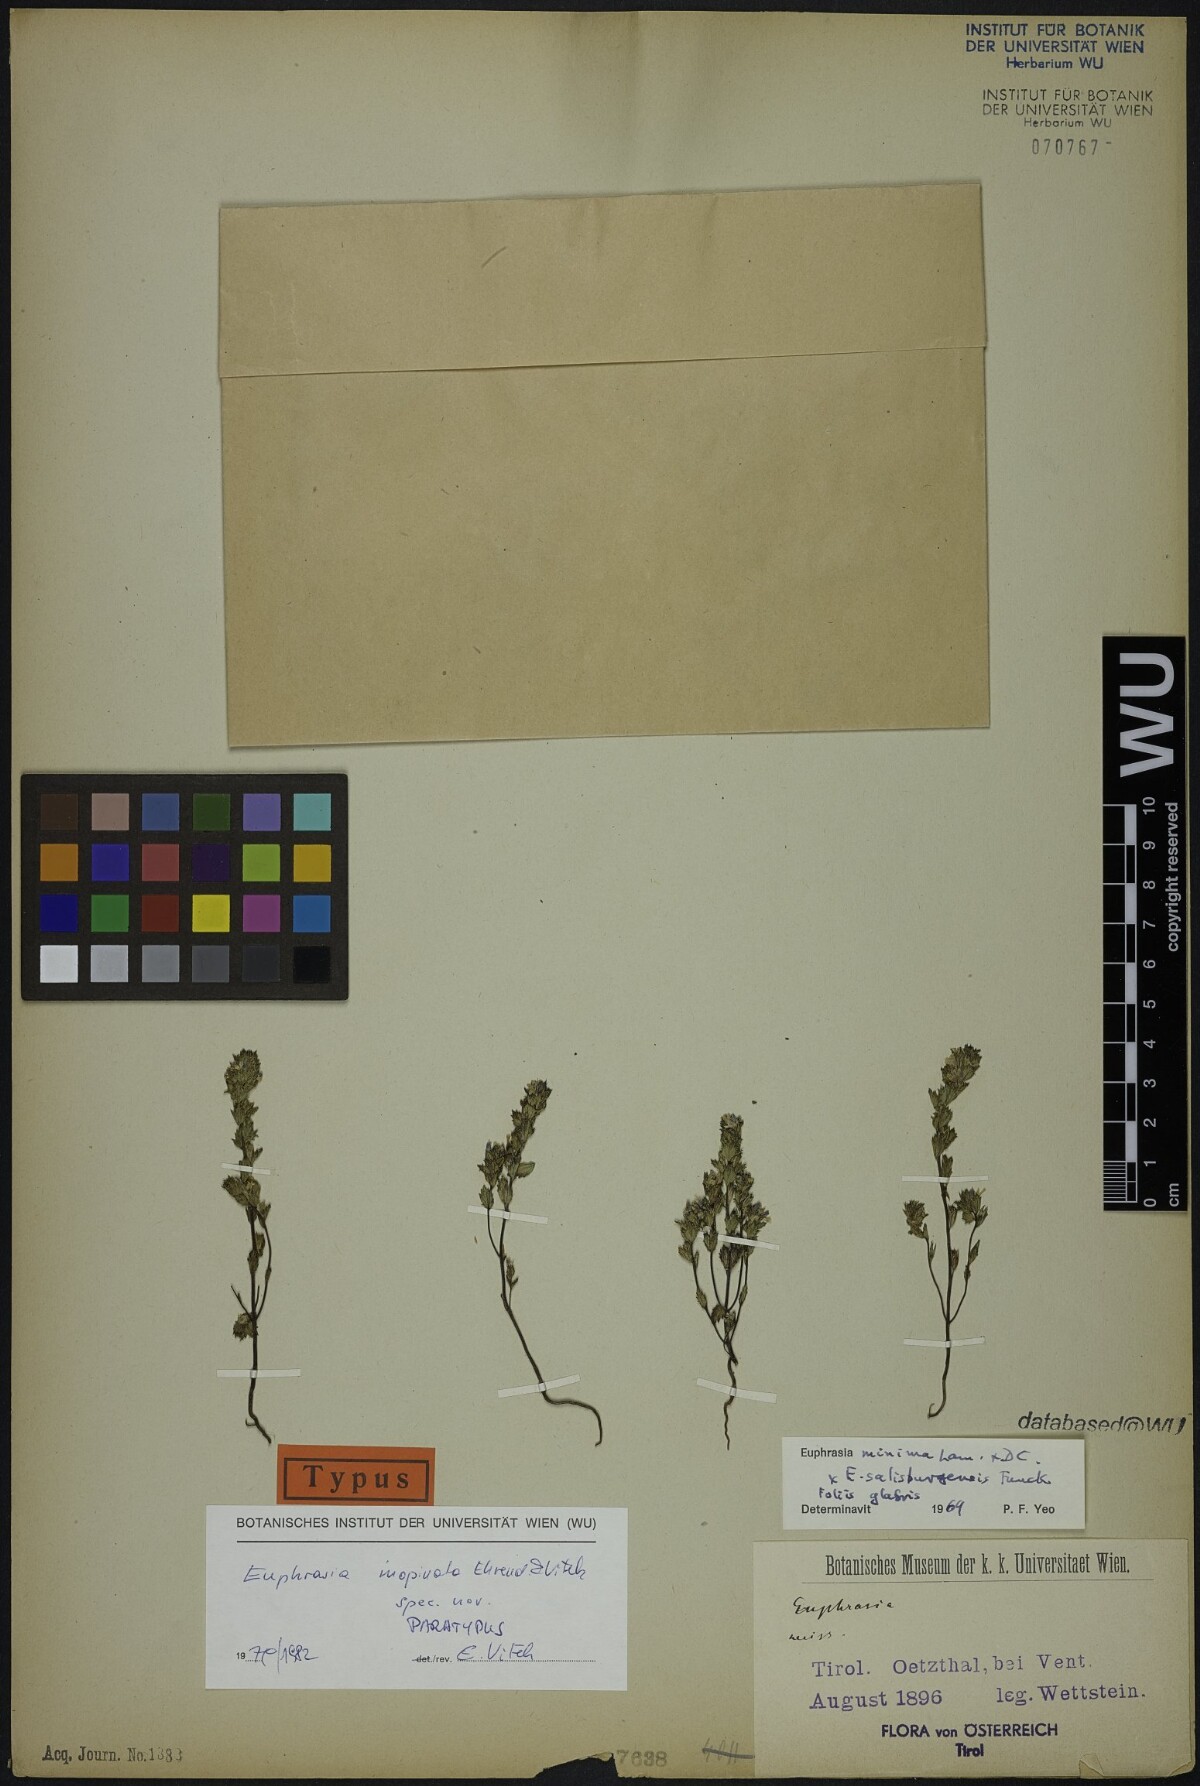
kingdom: Plantae
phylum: Tracheophyta
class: Magnoliopsida
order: Lamiales
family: Orobanchaceae
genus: Euphrasia
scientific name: Euphrasia inopinata
